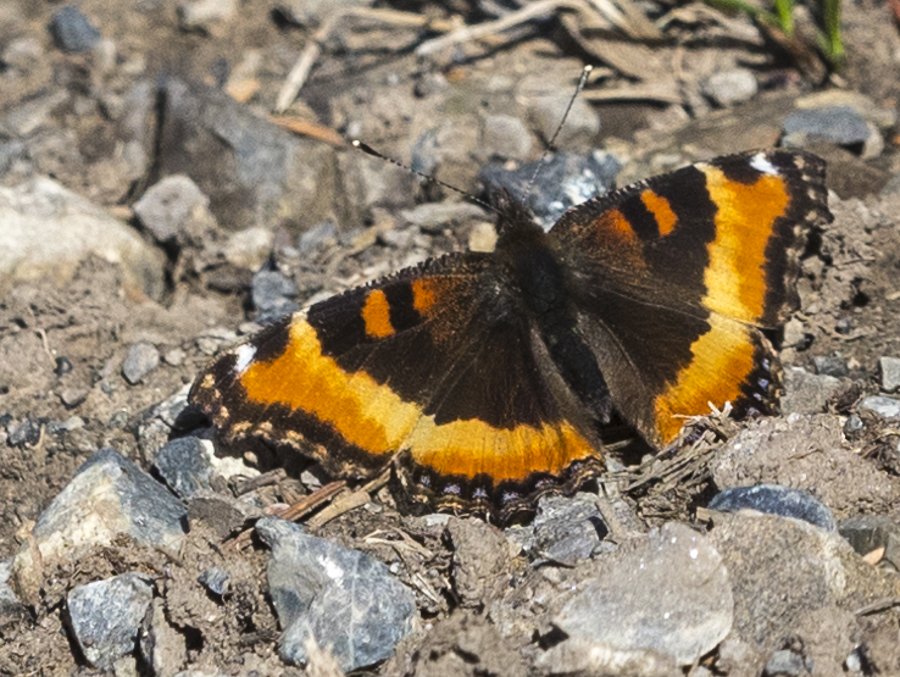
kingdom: Animalia
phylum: Arthropoda
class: Insecta
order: Lepidoptera
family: Nymphalidae
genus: Aglais
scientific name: Aglais milberti
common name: Milbert's Tortoiseshell
